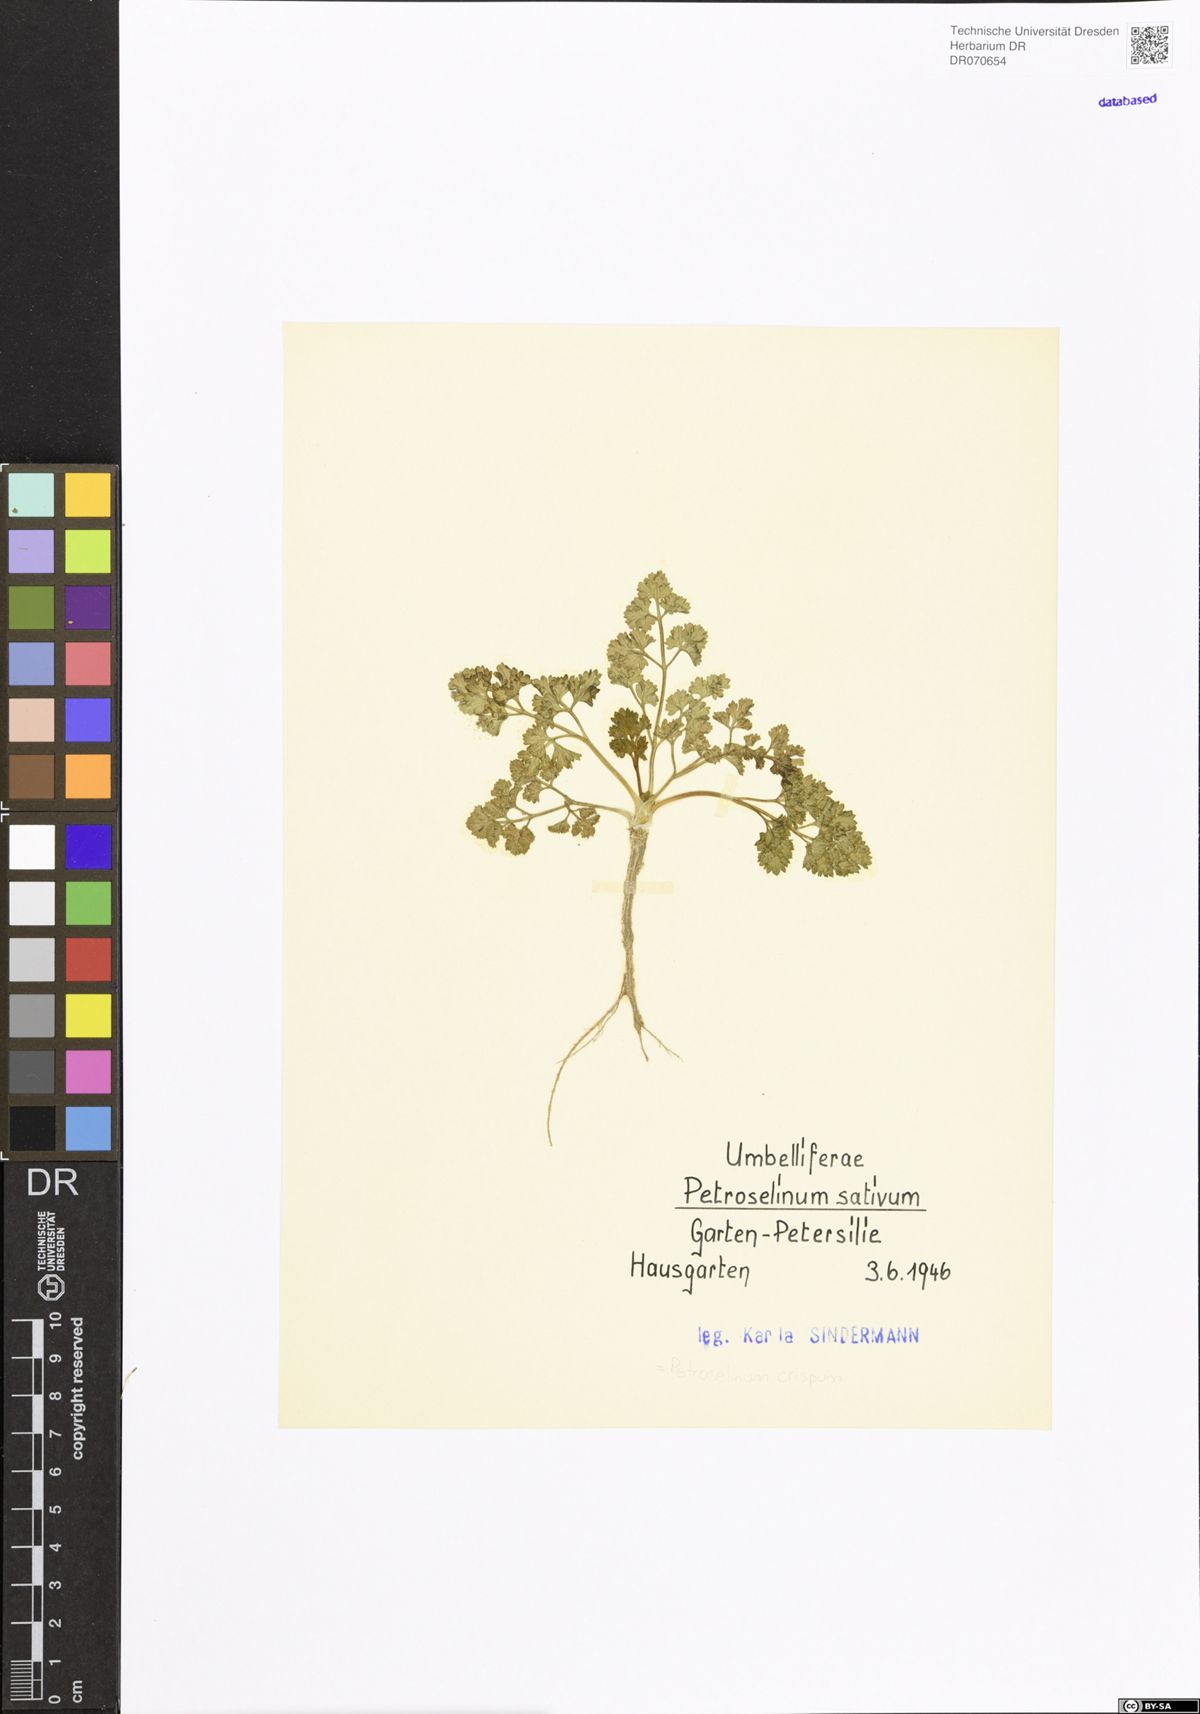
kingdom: Plantae
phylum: Tracheophyta
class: Magnoliopsida
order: Apiales
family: Apiaceae
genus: Petroselinum
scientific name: Petroselinum crispum
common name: Parsley
